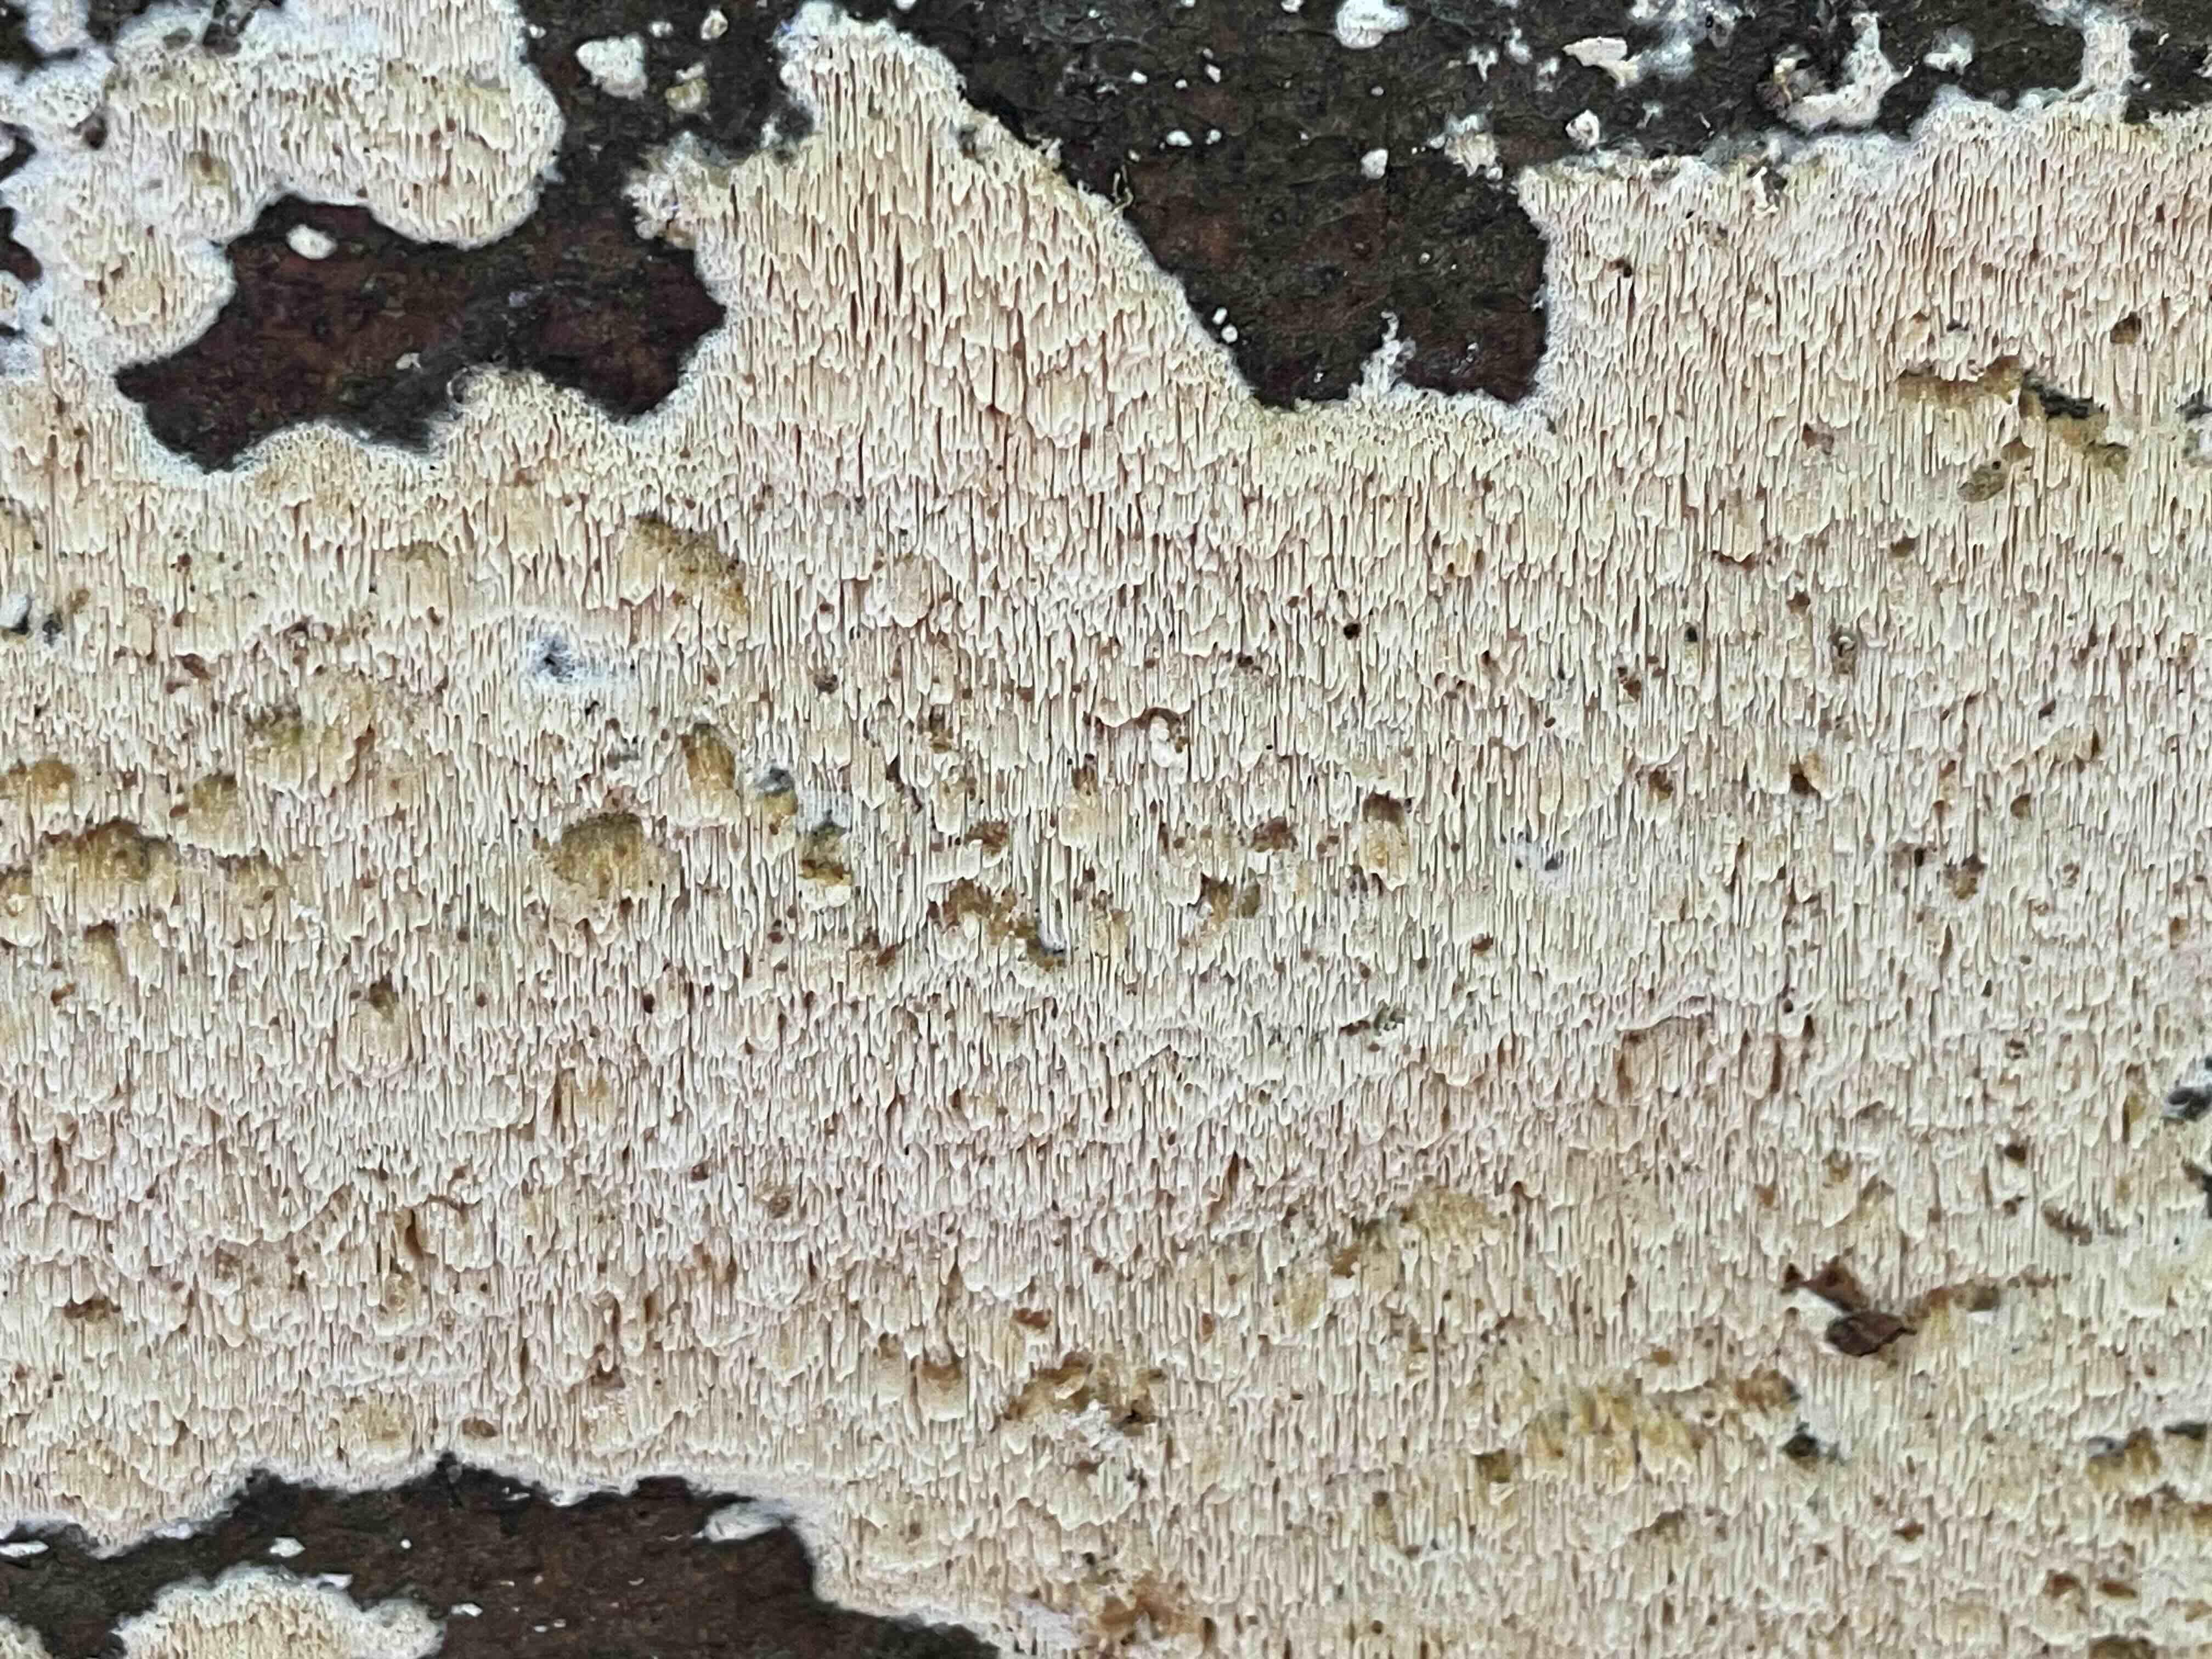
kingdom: Fungi
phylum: Basidiomycota
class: Agaricomycetes
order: Hymenochaetales
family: Schizoporaceae
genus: Xylodon
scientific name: Xylodon
